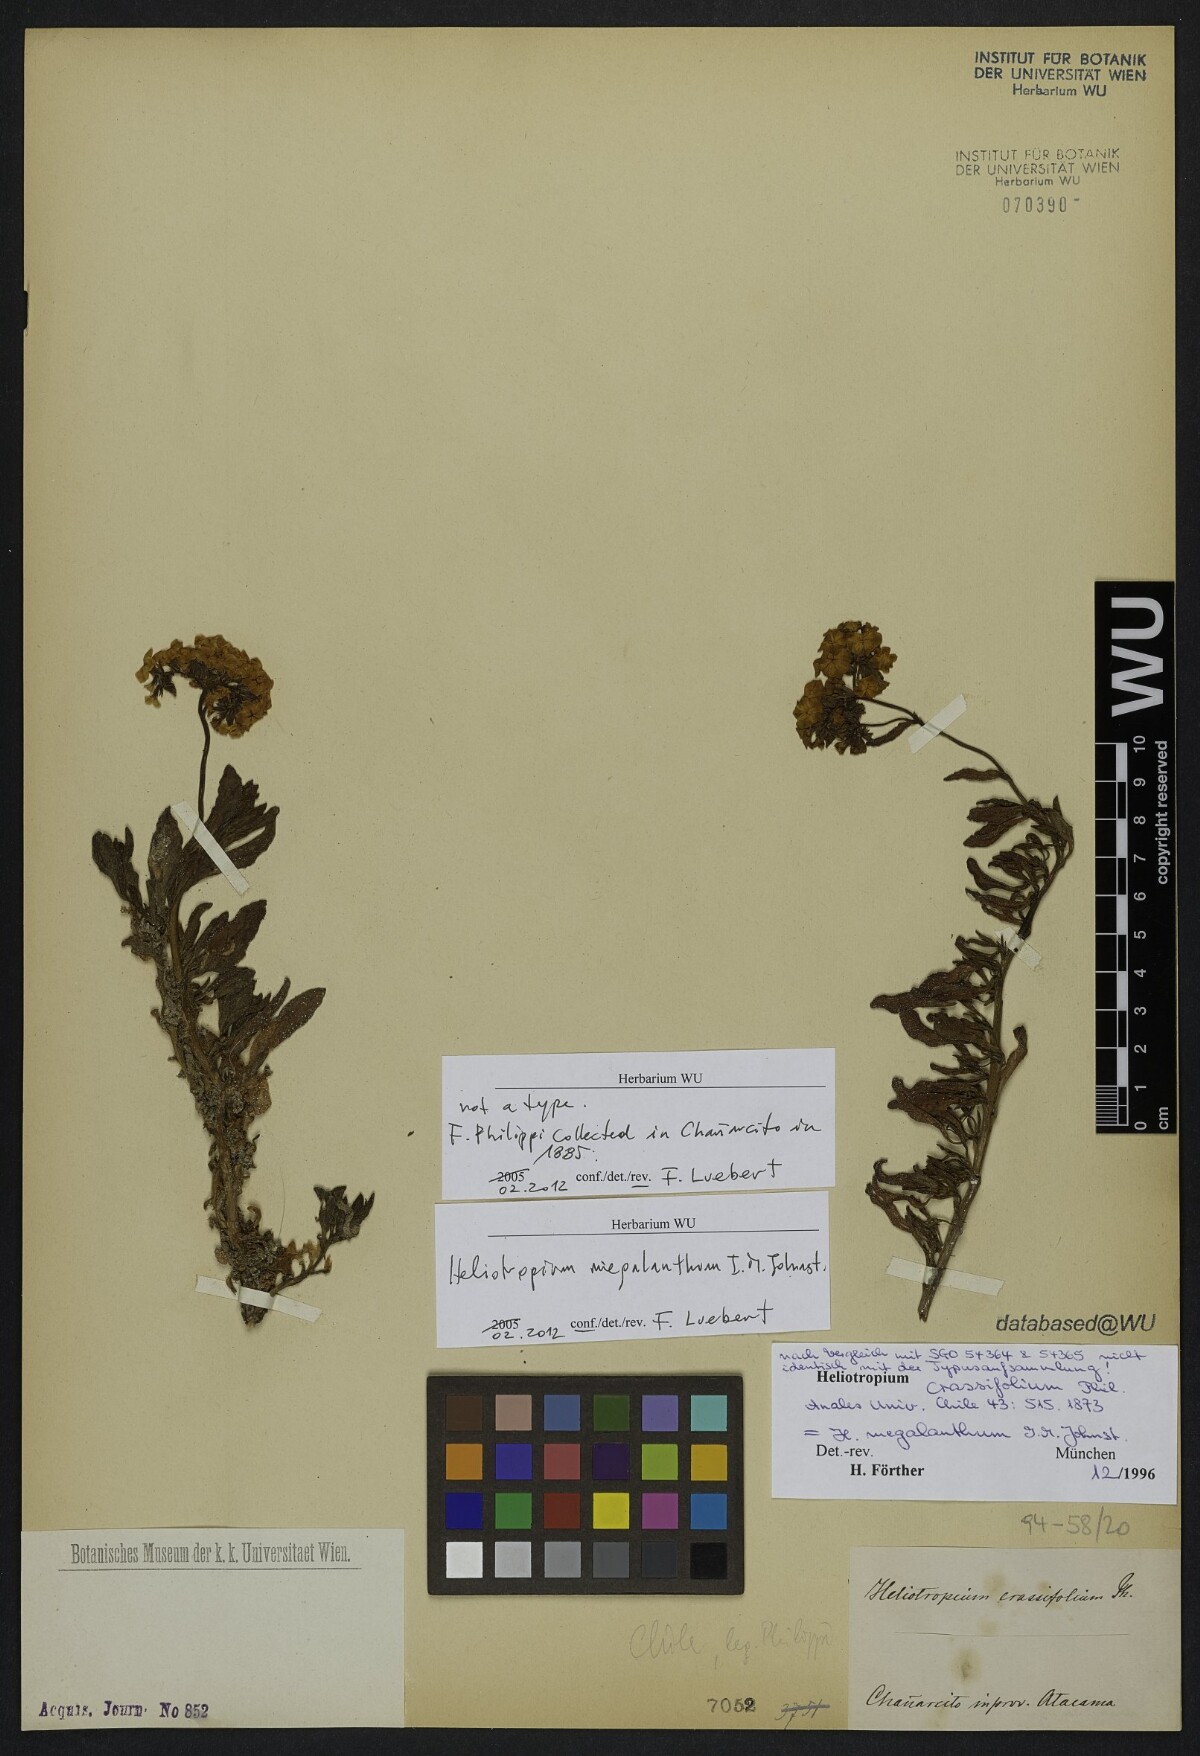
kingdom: Plantae
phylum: Tracheophyta
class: Magnoliopsida
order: Boraginales
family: Heliotropiaceae
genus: Heliotropium
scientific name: Heliotropium megalanthum
